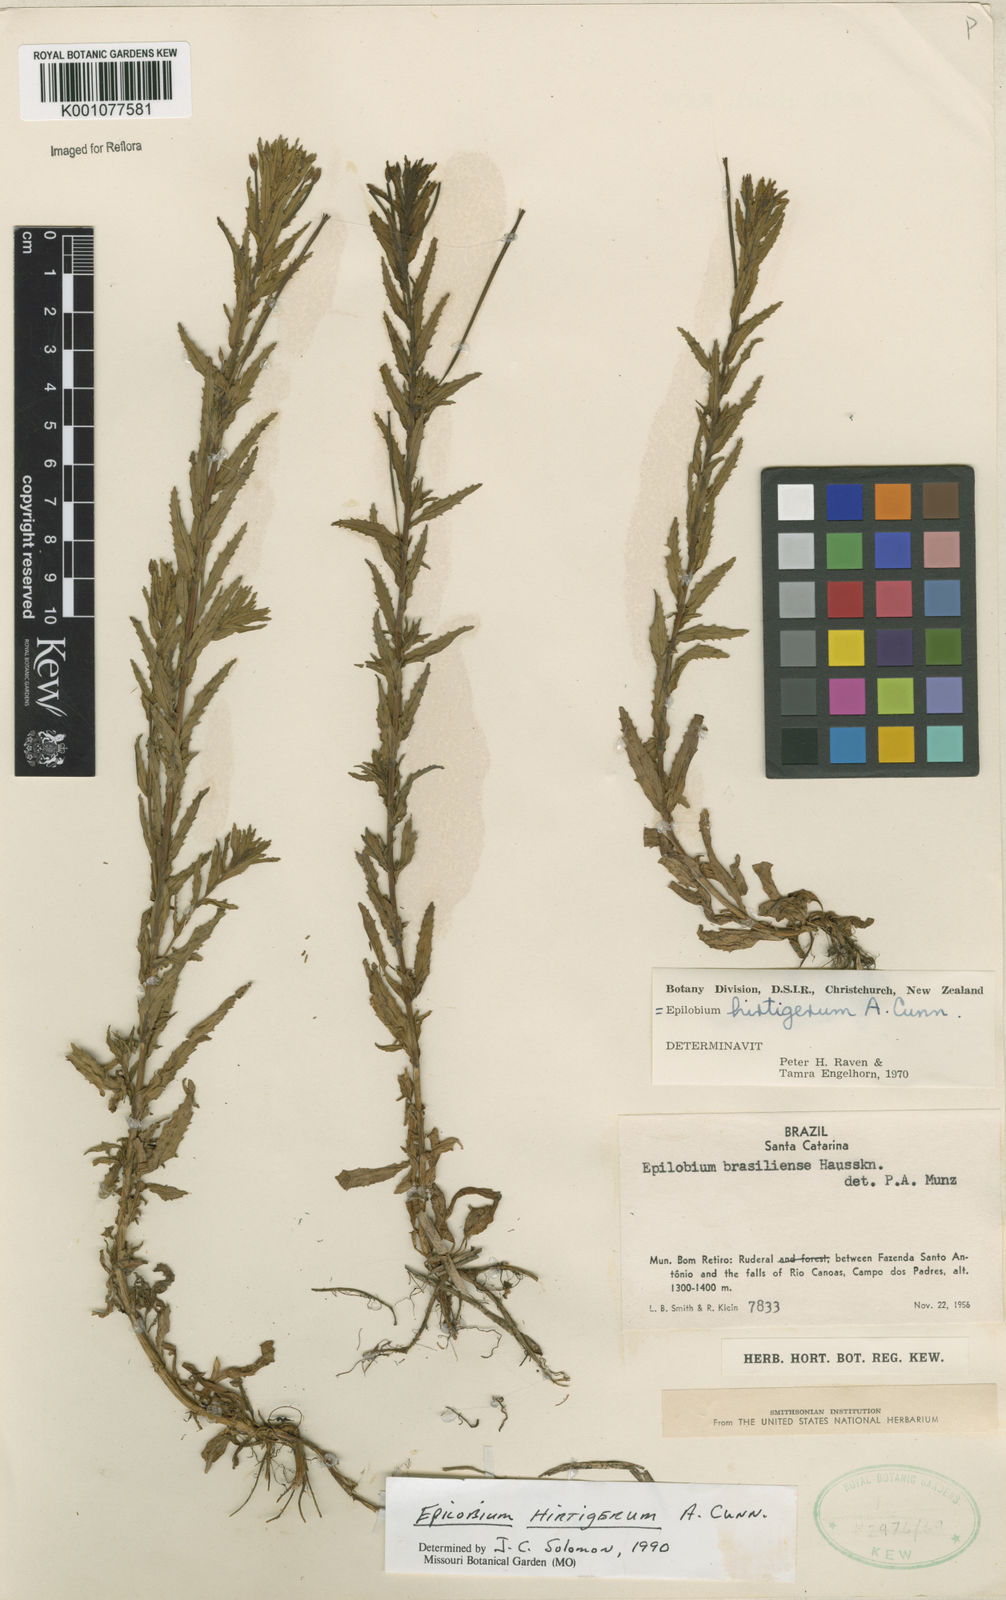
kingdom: Plantae
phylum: Tracheophyta
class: Magnoliopsida
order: Myrtales
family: Onagraceae
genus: Epilobium
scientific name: Epilobium hirtigerum
